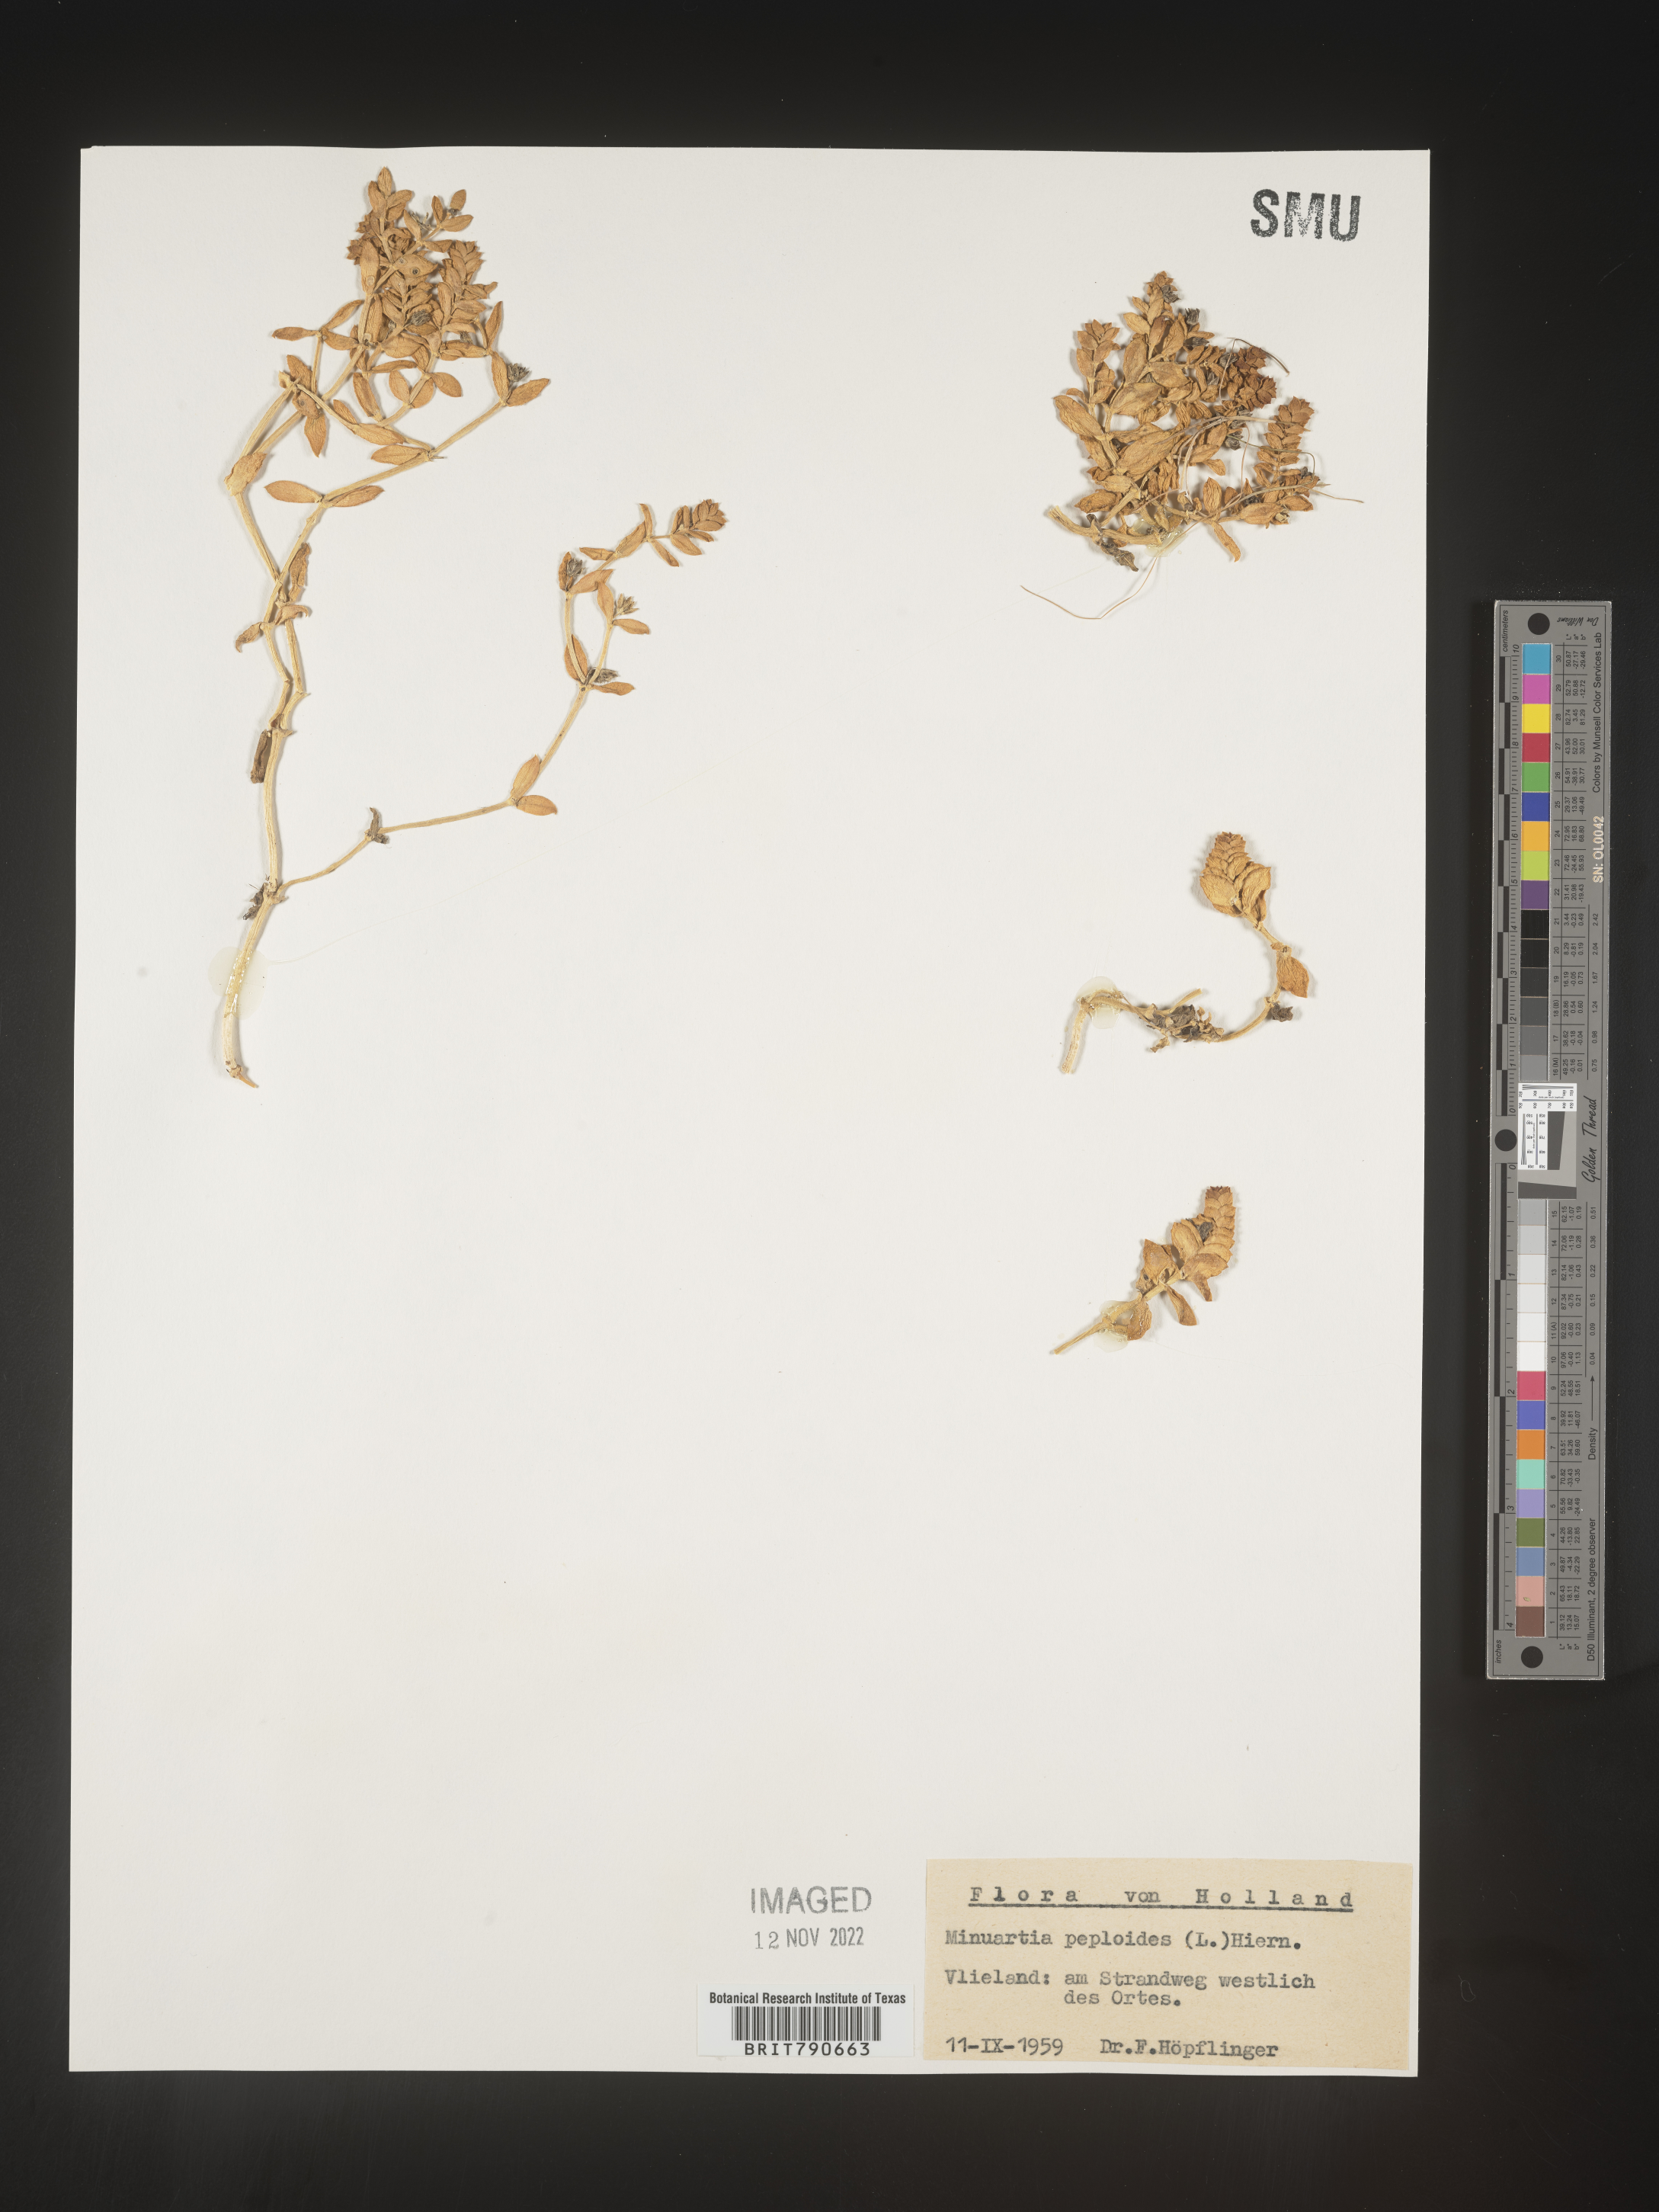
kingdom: Plantae
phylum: Tracheophyta
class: Magnoliopsida
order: Malvales
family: Malvaceae
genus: Clappertonia
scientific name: Clappertonia
